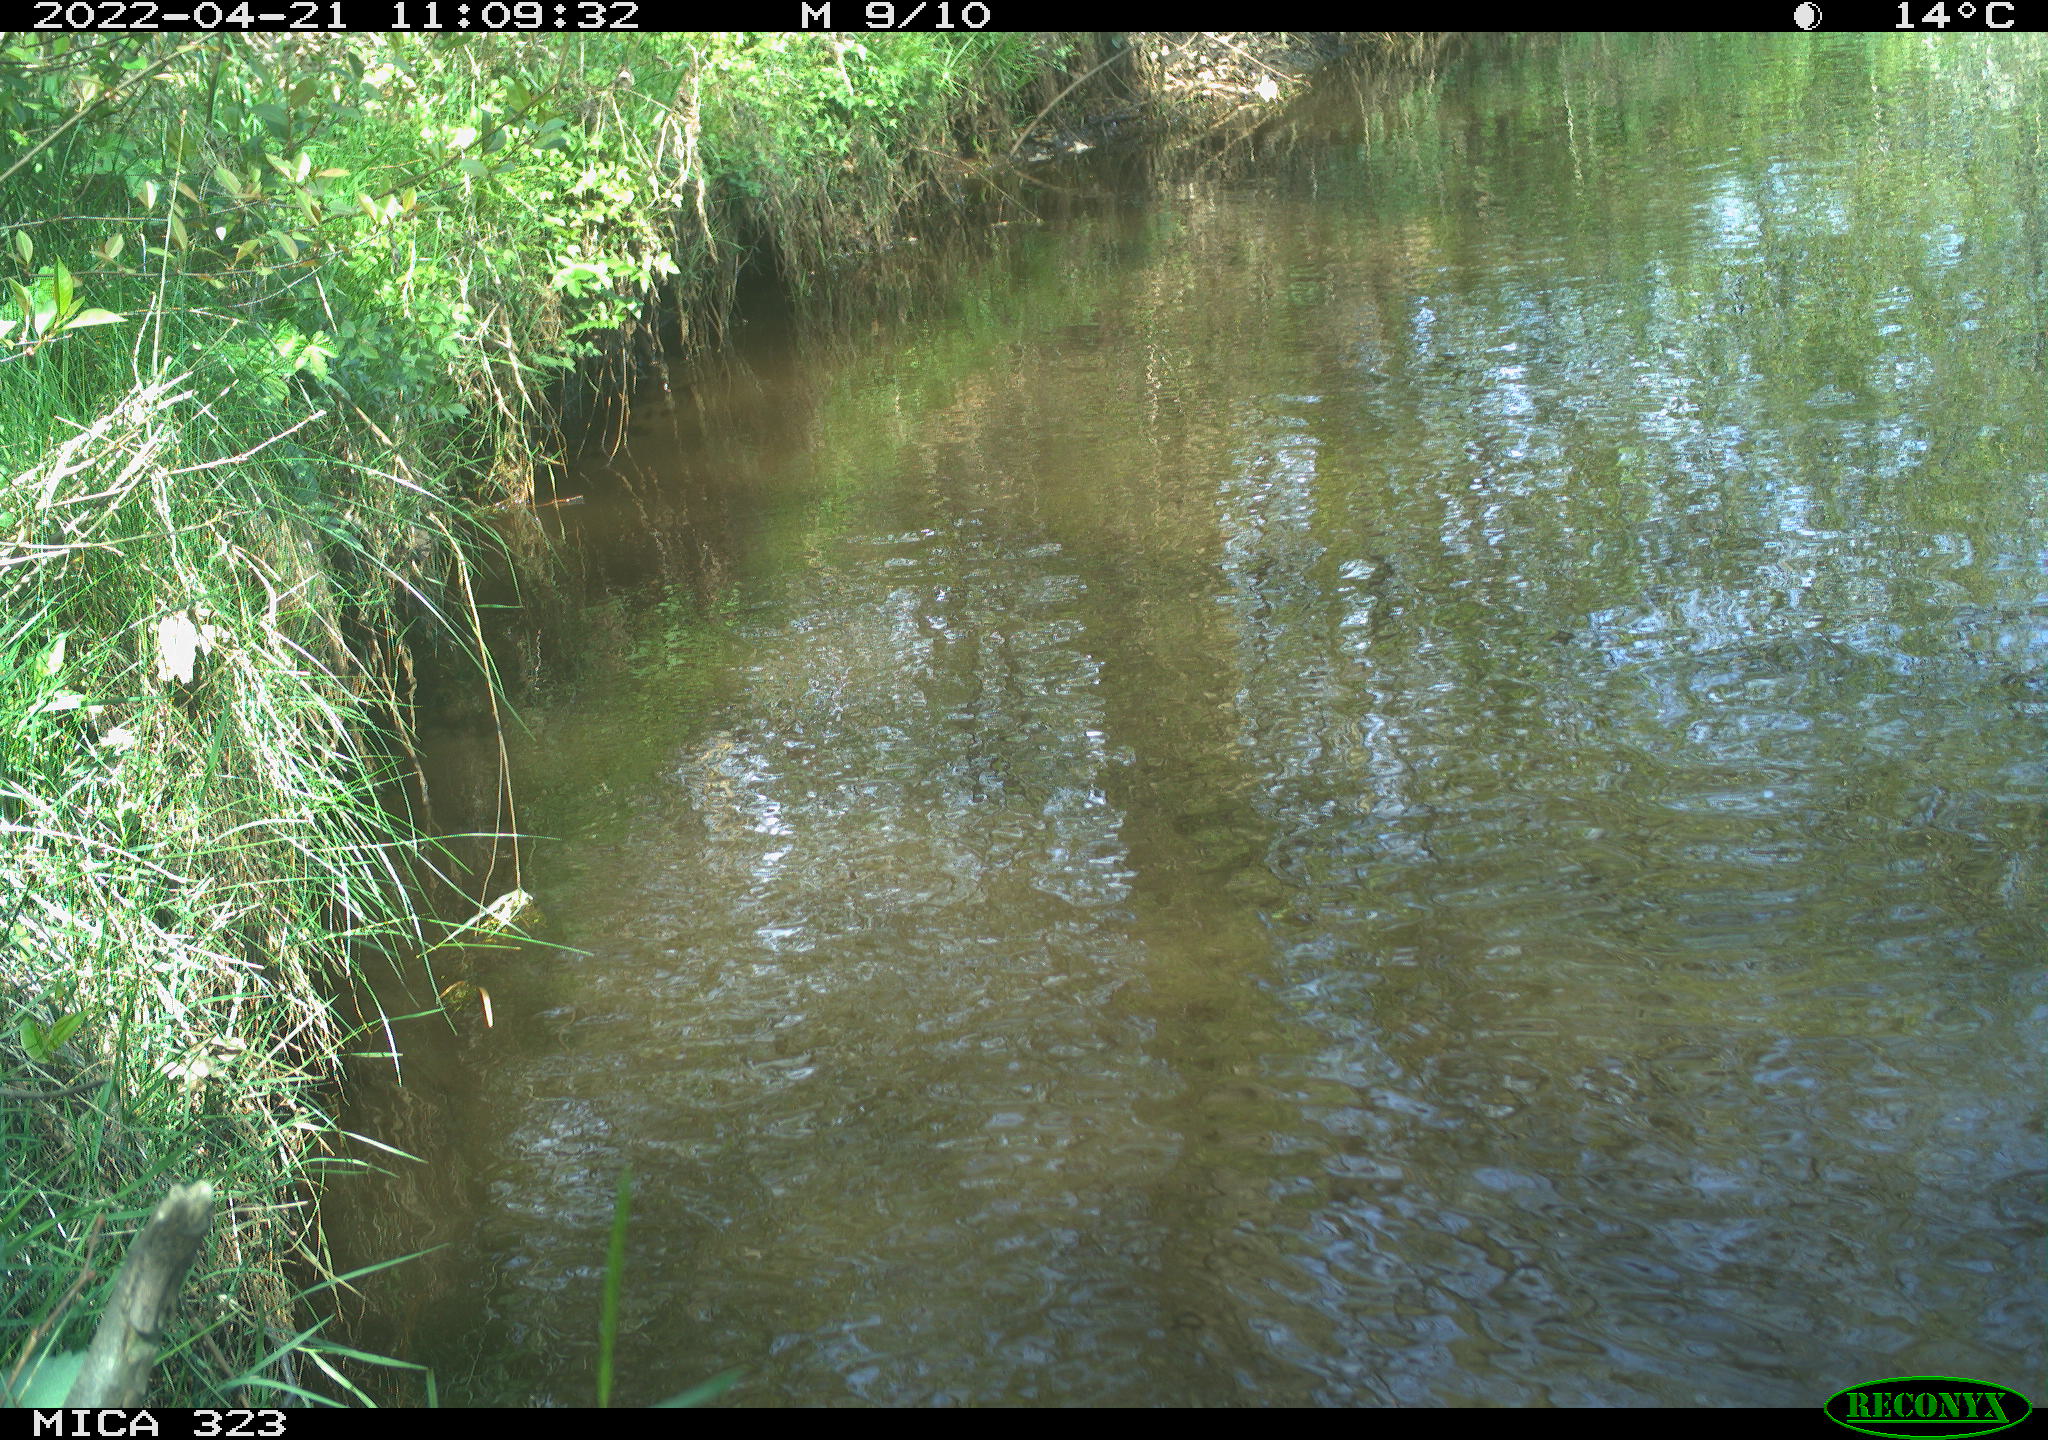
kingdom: Animalia
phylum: Chordata
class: Aves
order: Gruiformes
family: Rallidae
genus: Gallinula
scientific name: Gallinula chloropus
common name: Common moorhen
